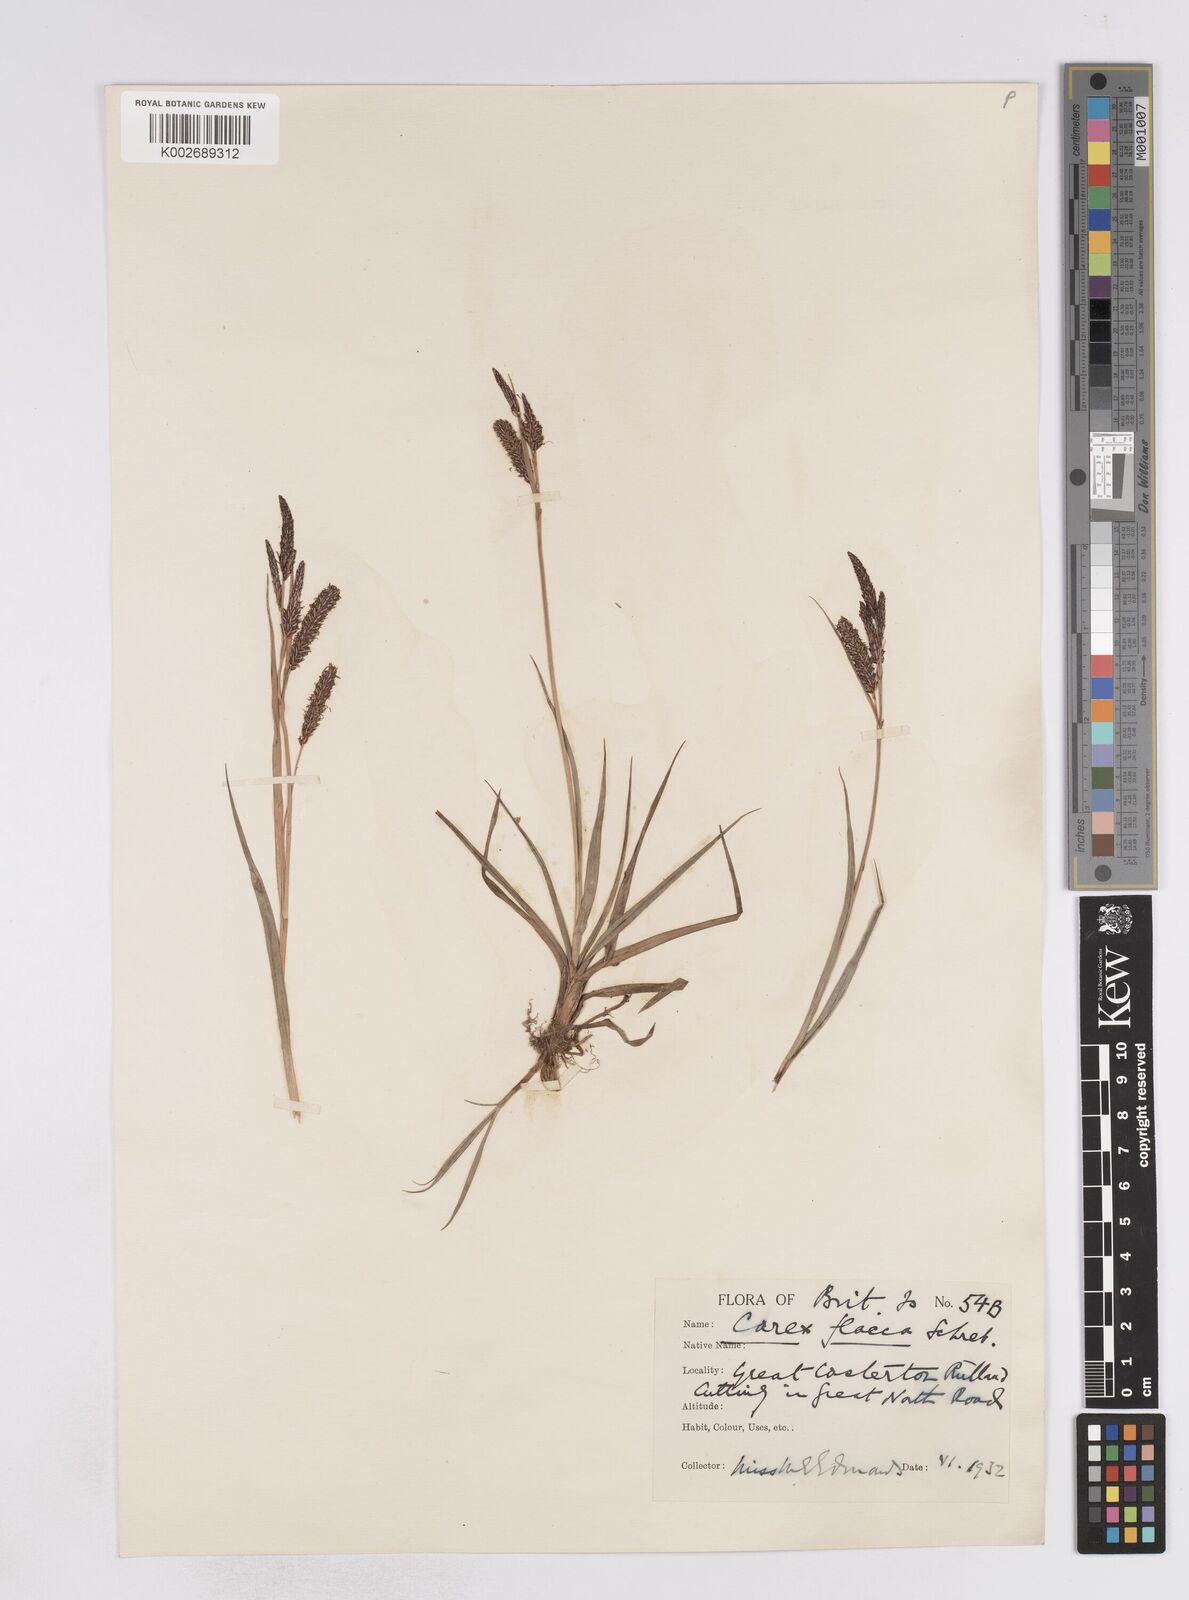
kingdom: Plantae
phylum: Tracheophyta
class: Liliopsida
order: Poales
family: Cyperaceae
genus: Carex
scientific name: Carex flacca
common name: Glaucous sedge
